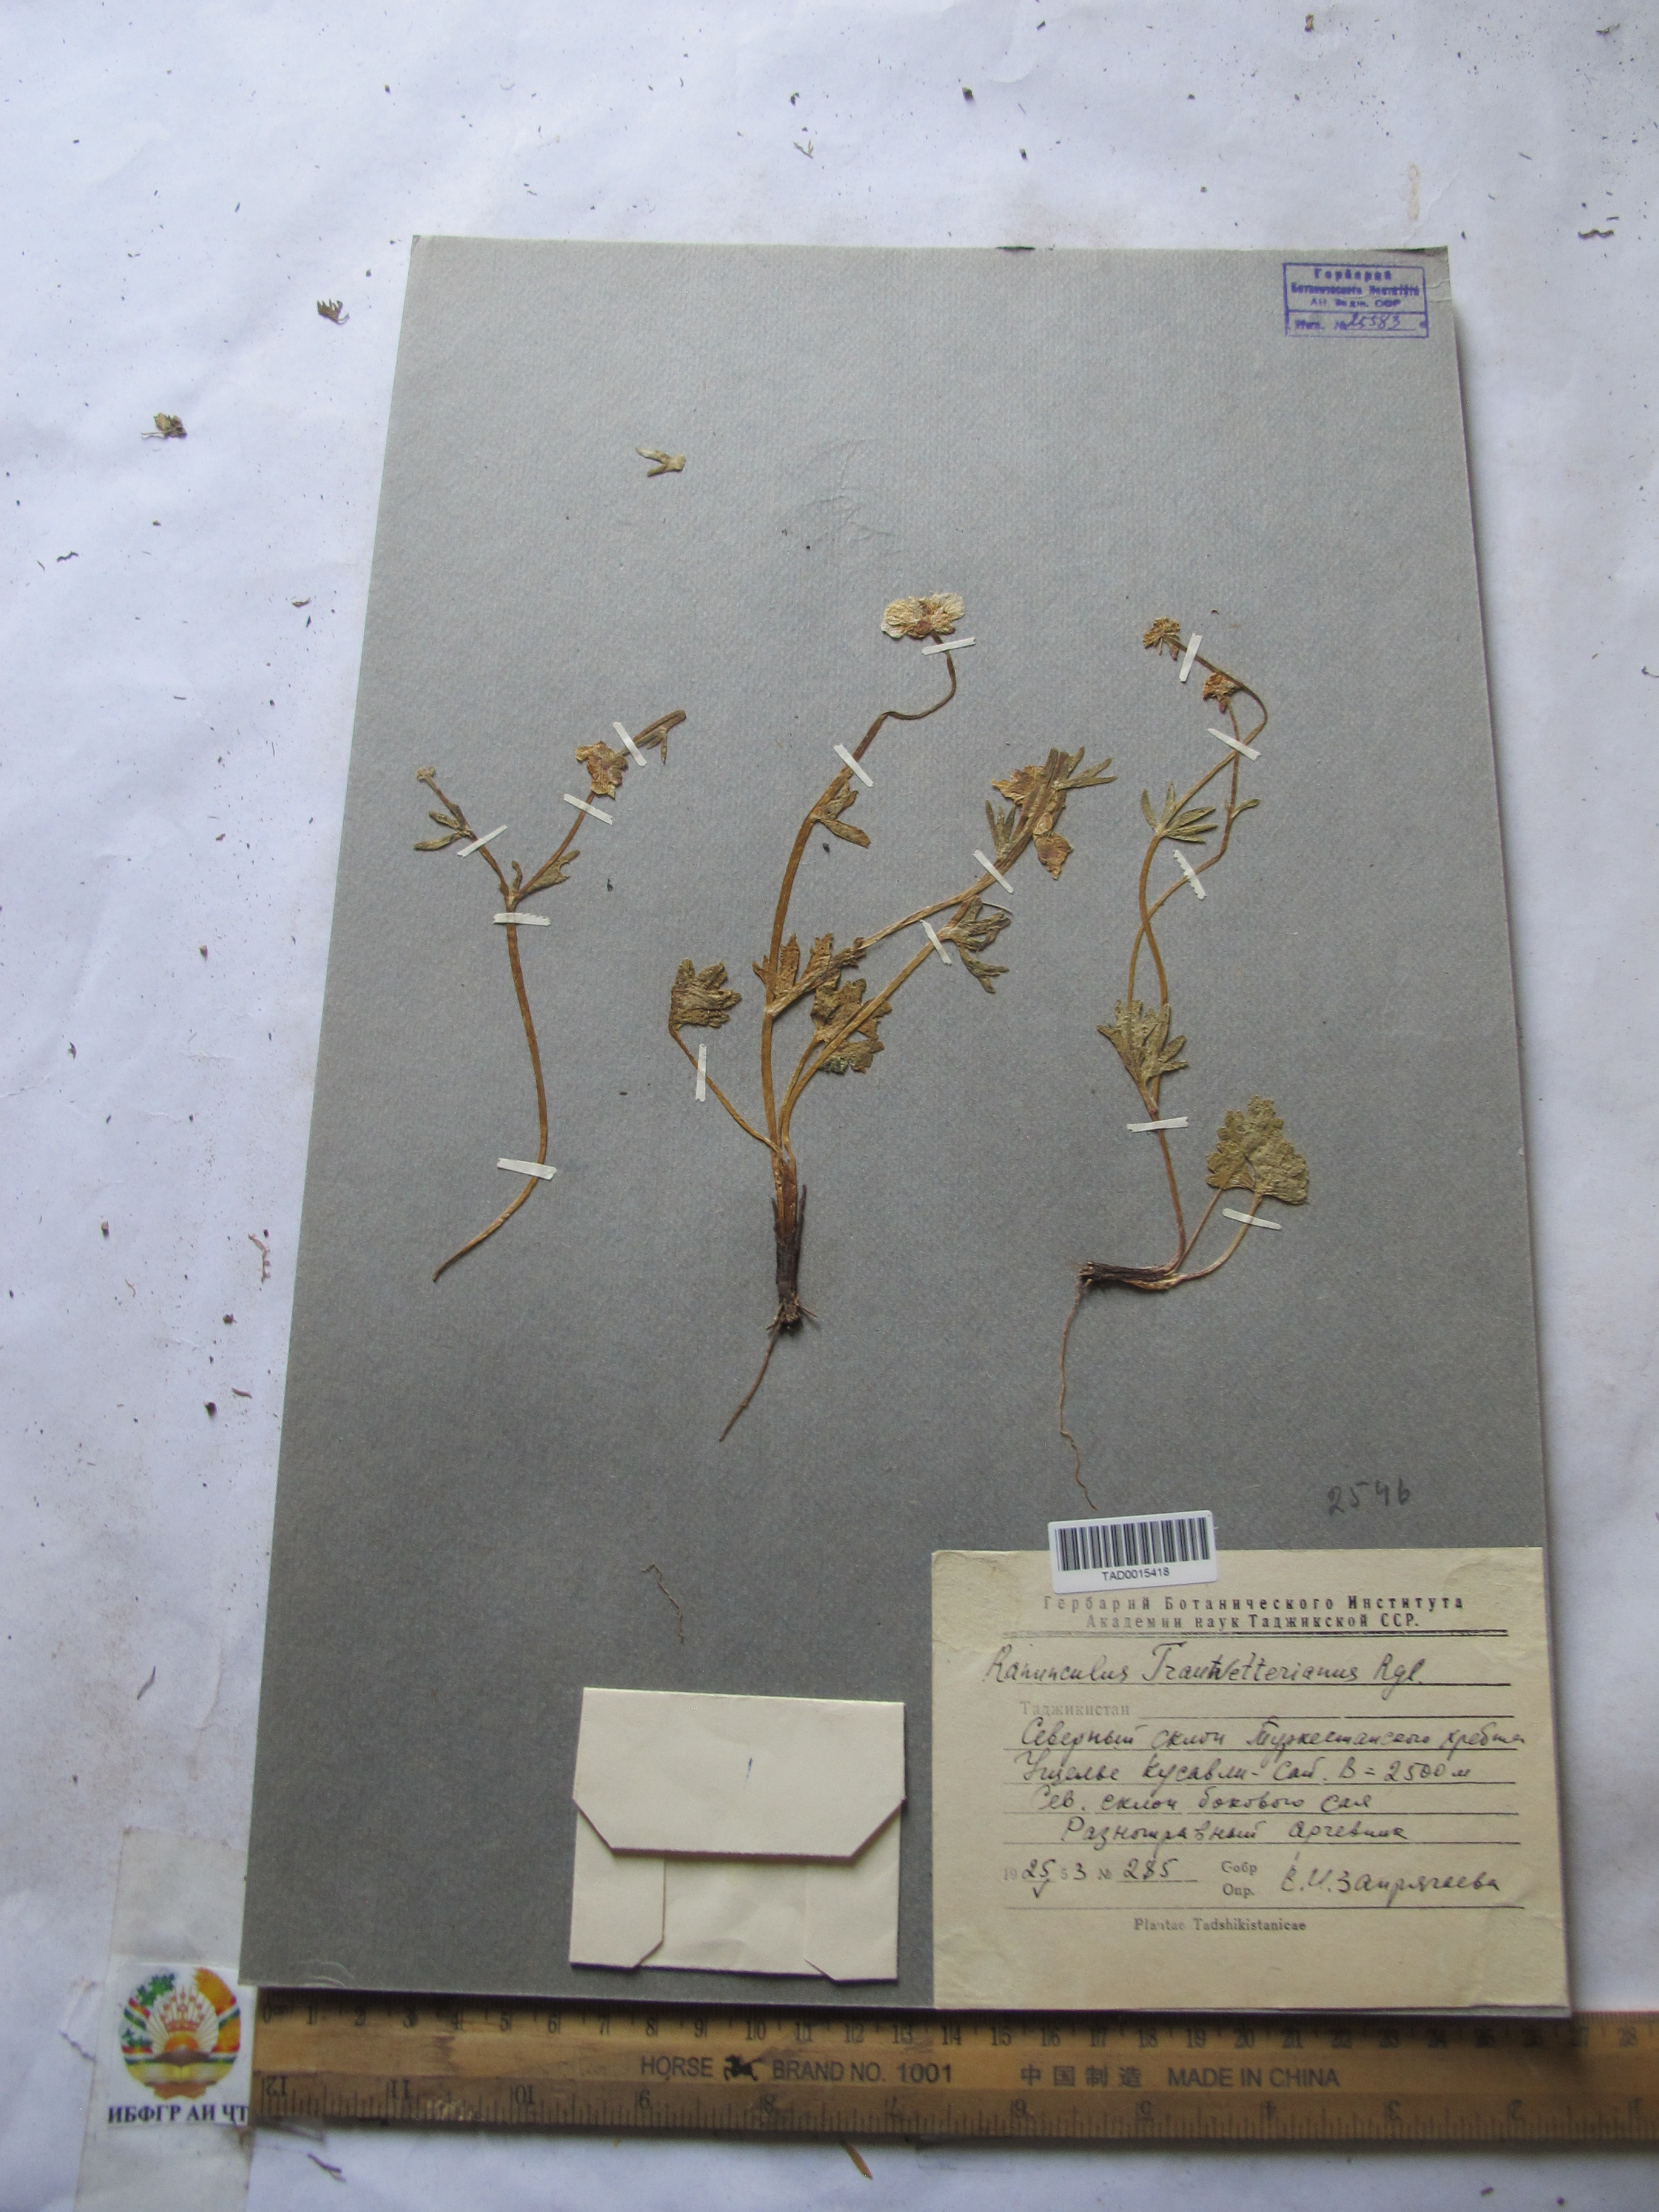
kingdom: Plantae
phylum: Tracheophyta
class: Magnoliopsida
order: Ranunculales
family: Ranunculaceae
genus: Ranunculus
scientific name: Ranunculus songaricus
